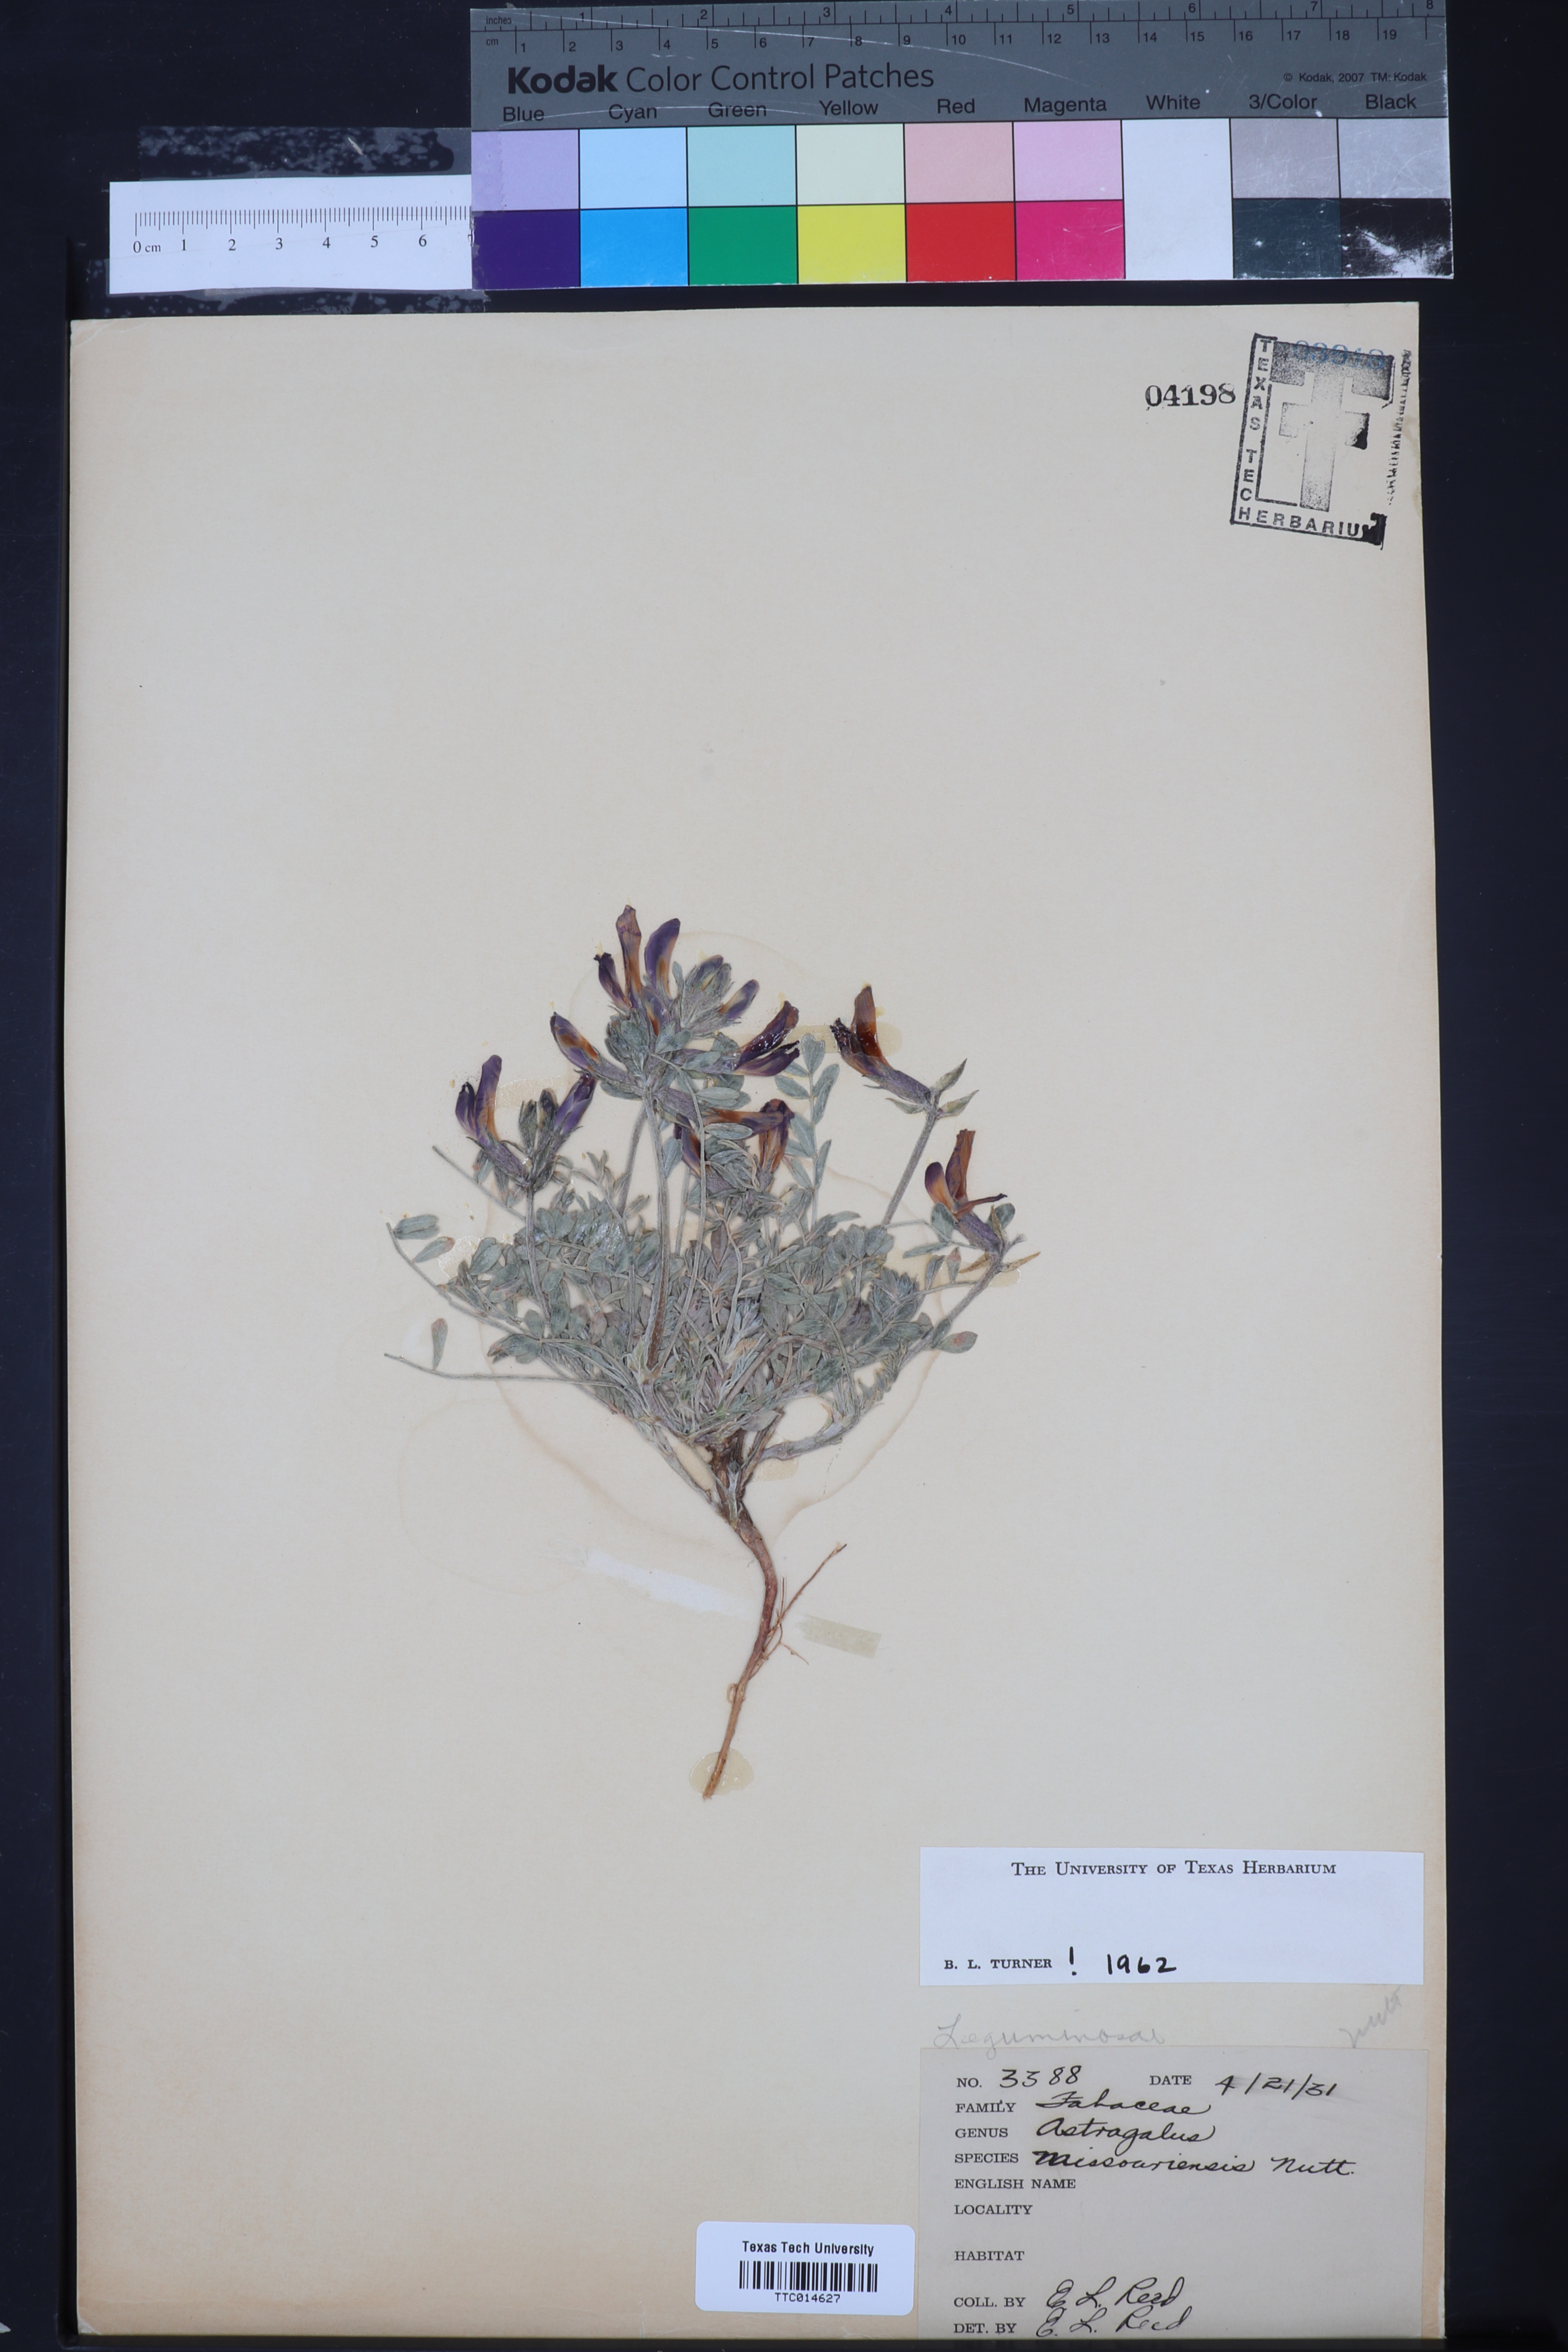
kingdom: Plantae
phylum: Tracheophyta
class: Magnoliopsida
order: Fabales
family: Fabaceae
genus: Astragalus
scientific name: Astragalus missouriensis
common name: Missouri milk-vetch
